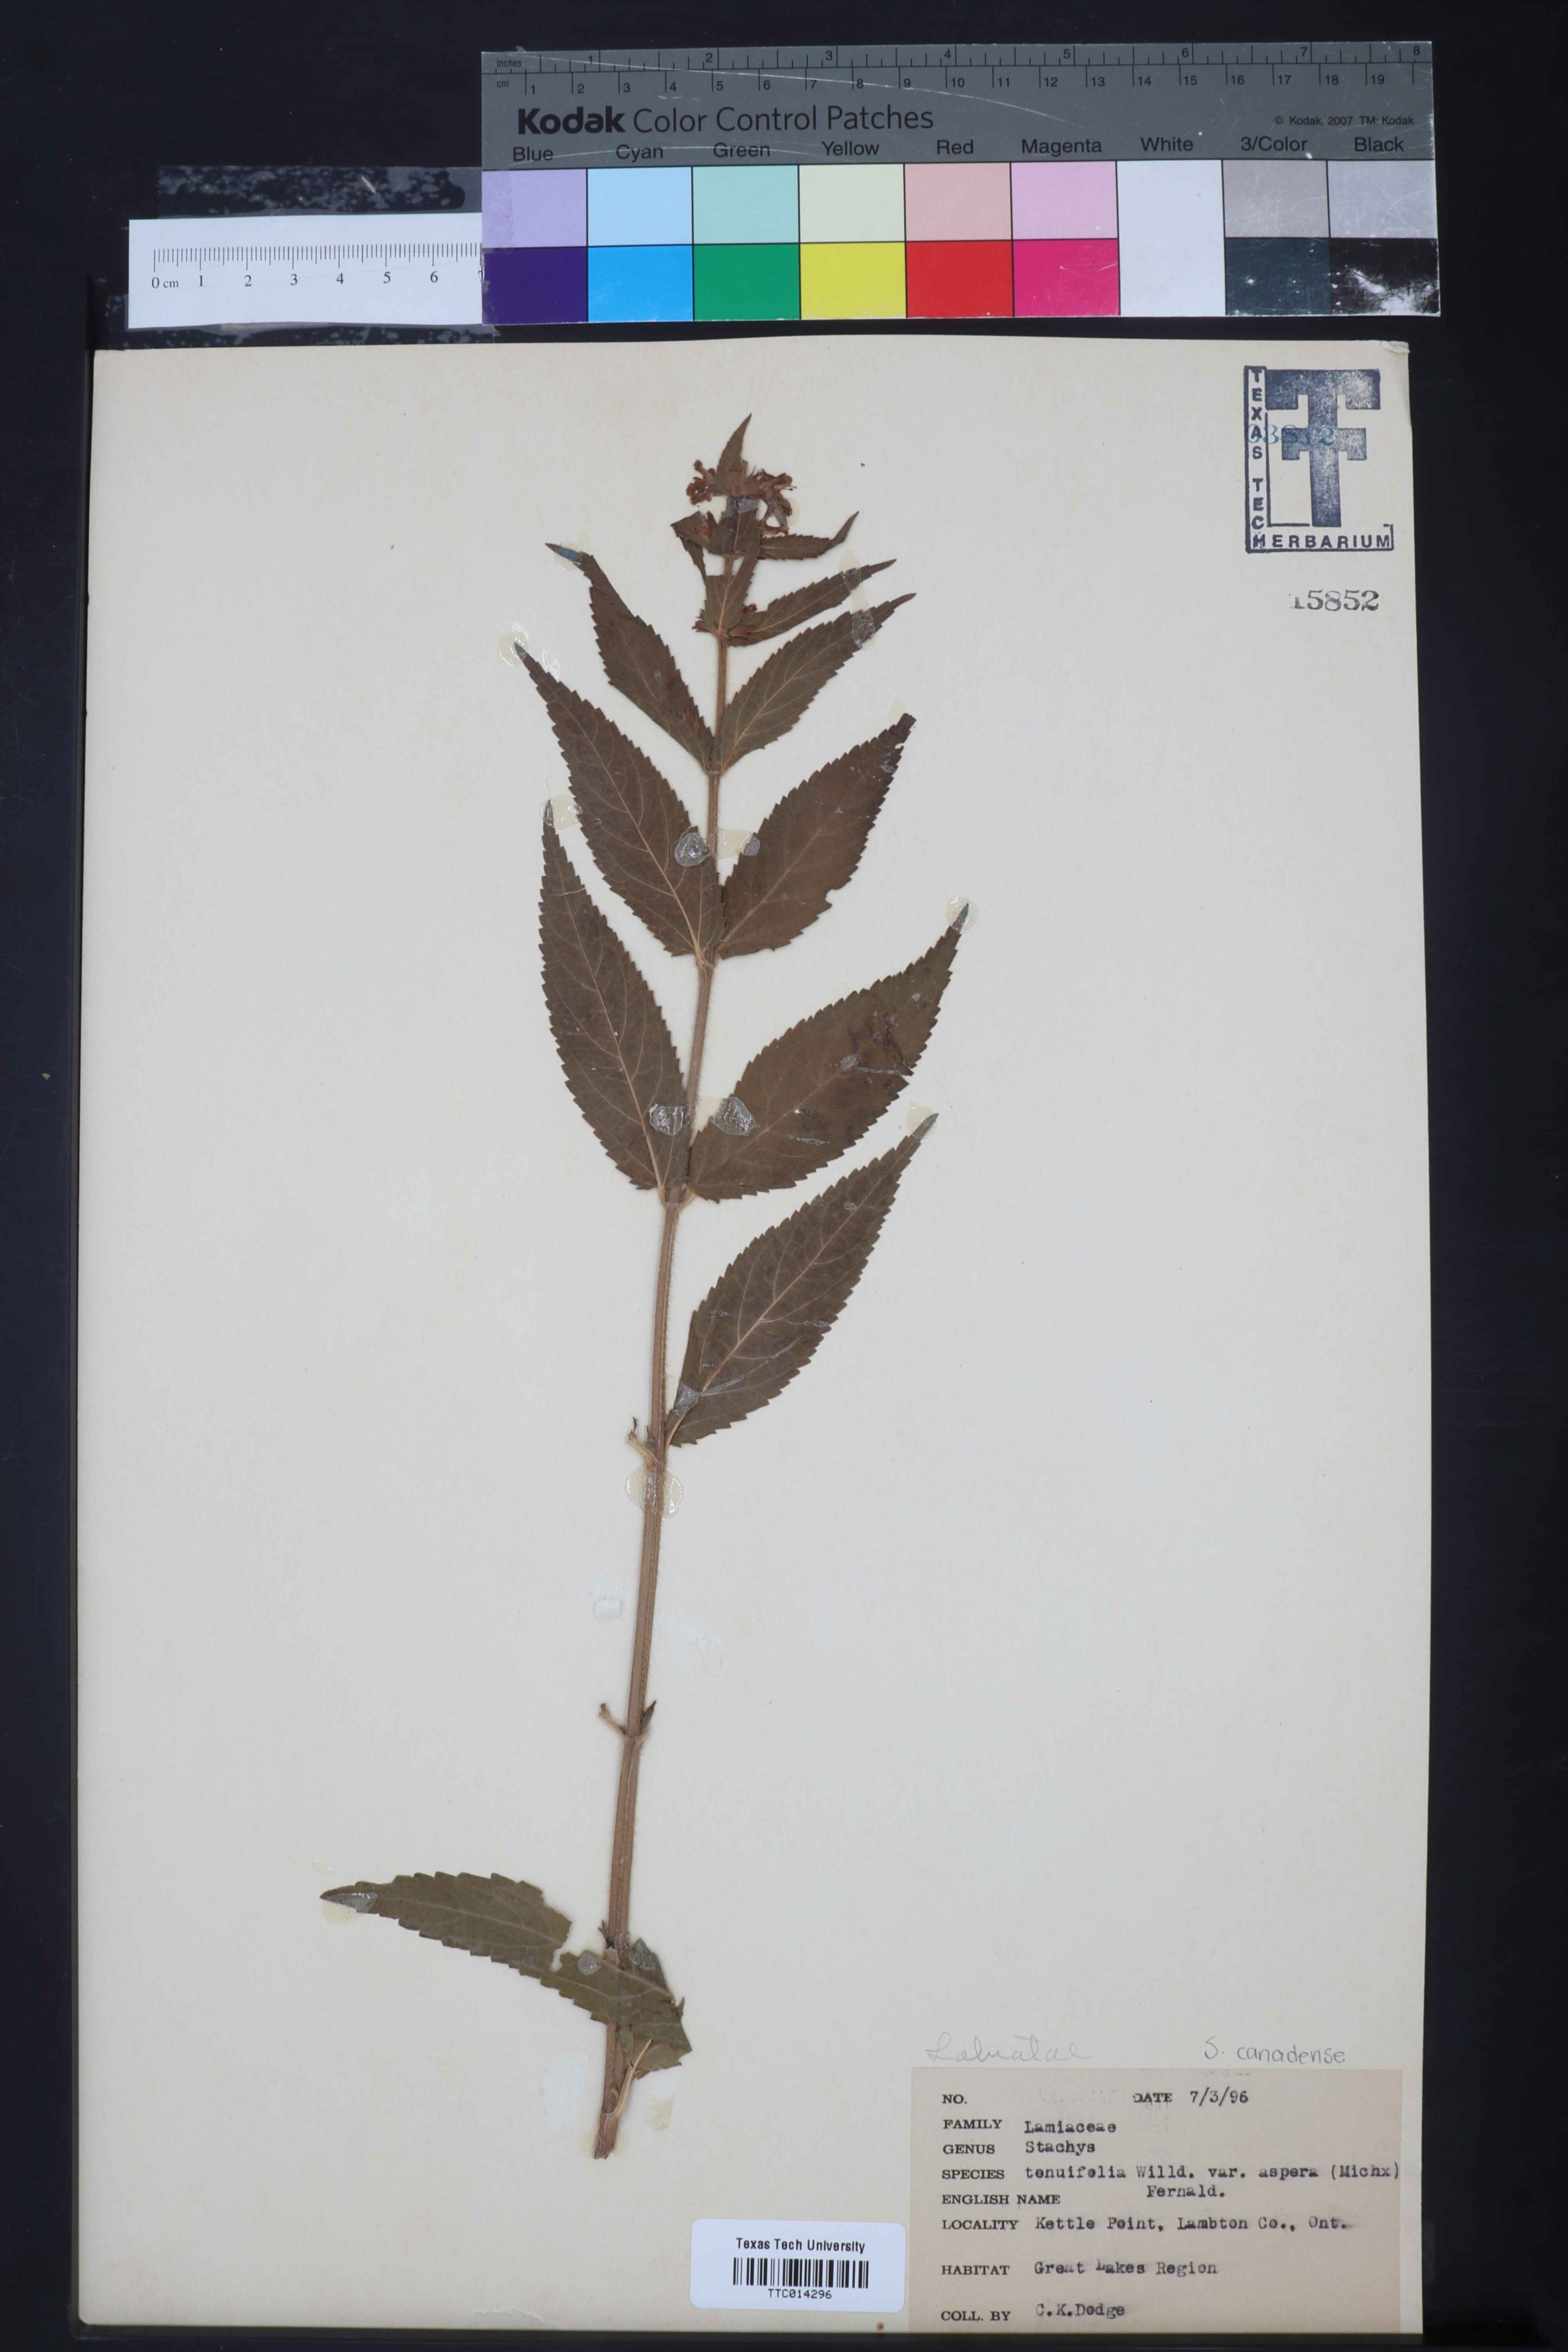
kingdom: Plantae
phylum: Tracheophyta
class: Magnoliopsida
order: Lamiales
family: Lamiaceae
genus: Stachys
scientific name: Stachys tenuifolia
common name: Smooth hedge-nettle
